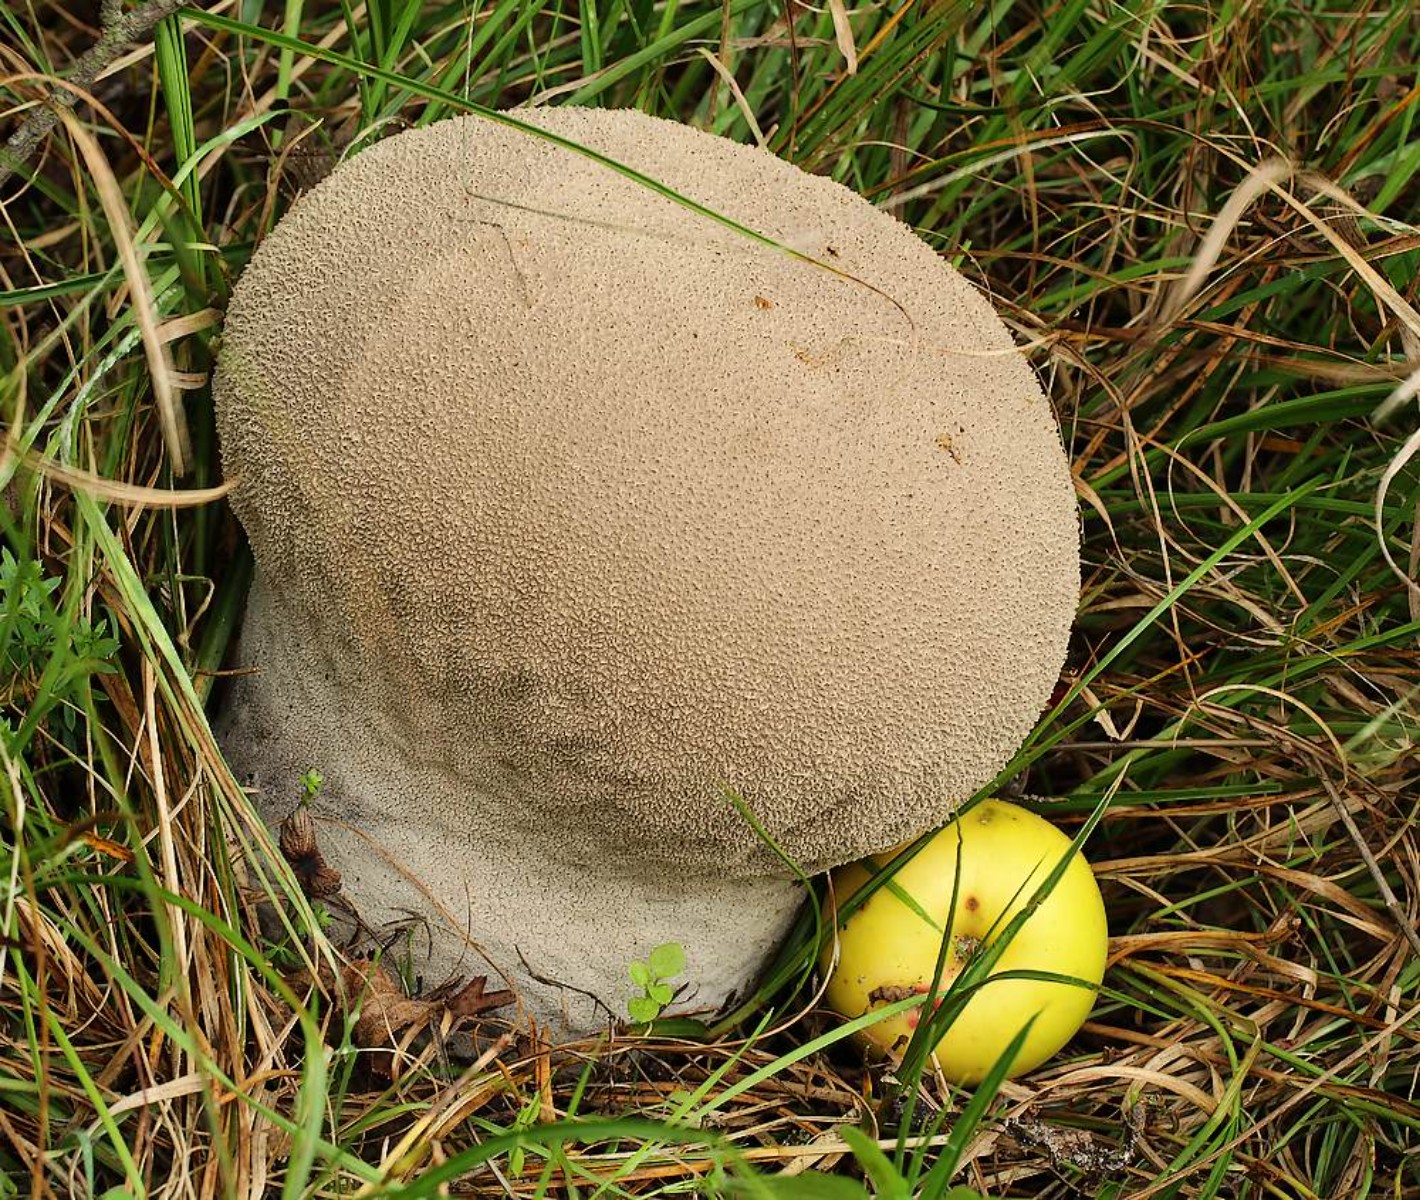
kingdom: Fungi
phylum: Basidiomycota
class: Agaricomycetes
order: Agaricales
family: Lycoperdaceae
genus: Bovistella
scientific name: Bovistella utriformis
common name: skællet støvbold
